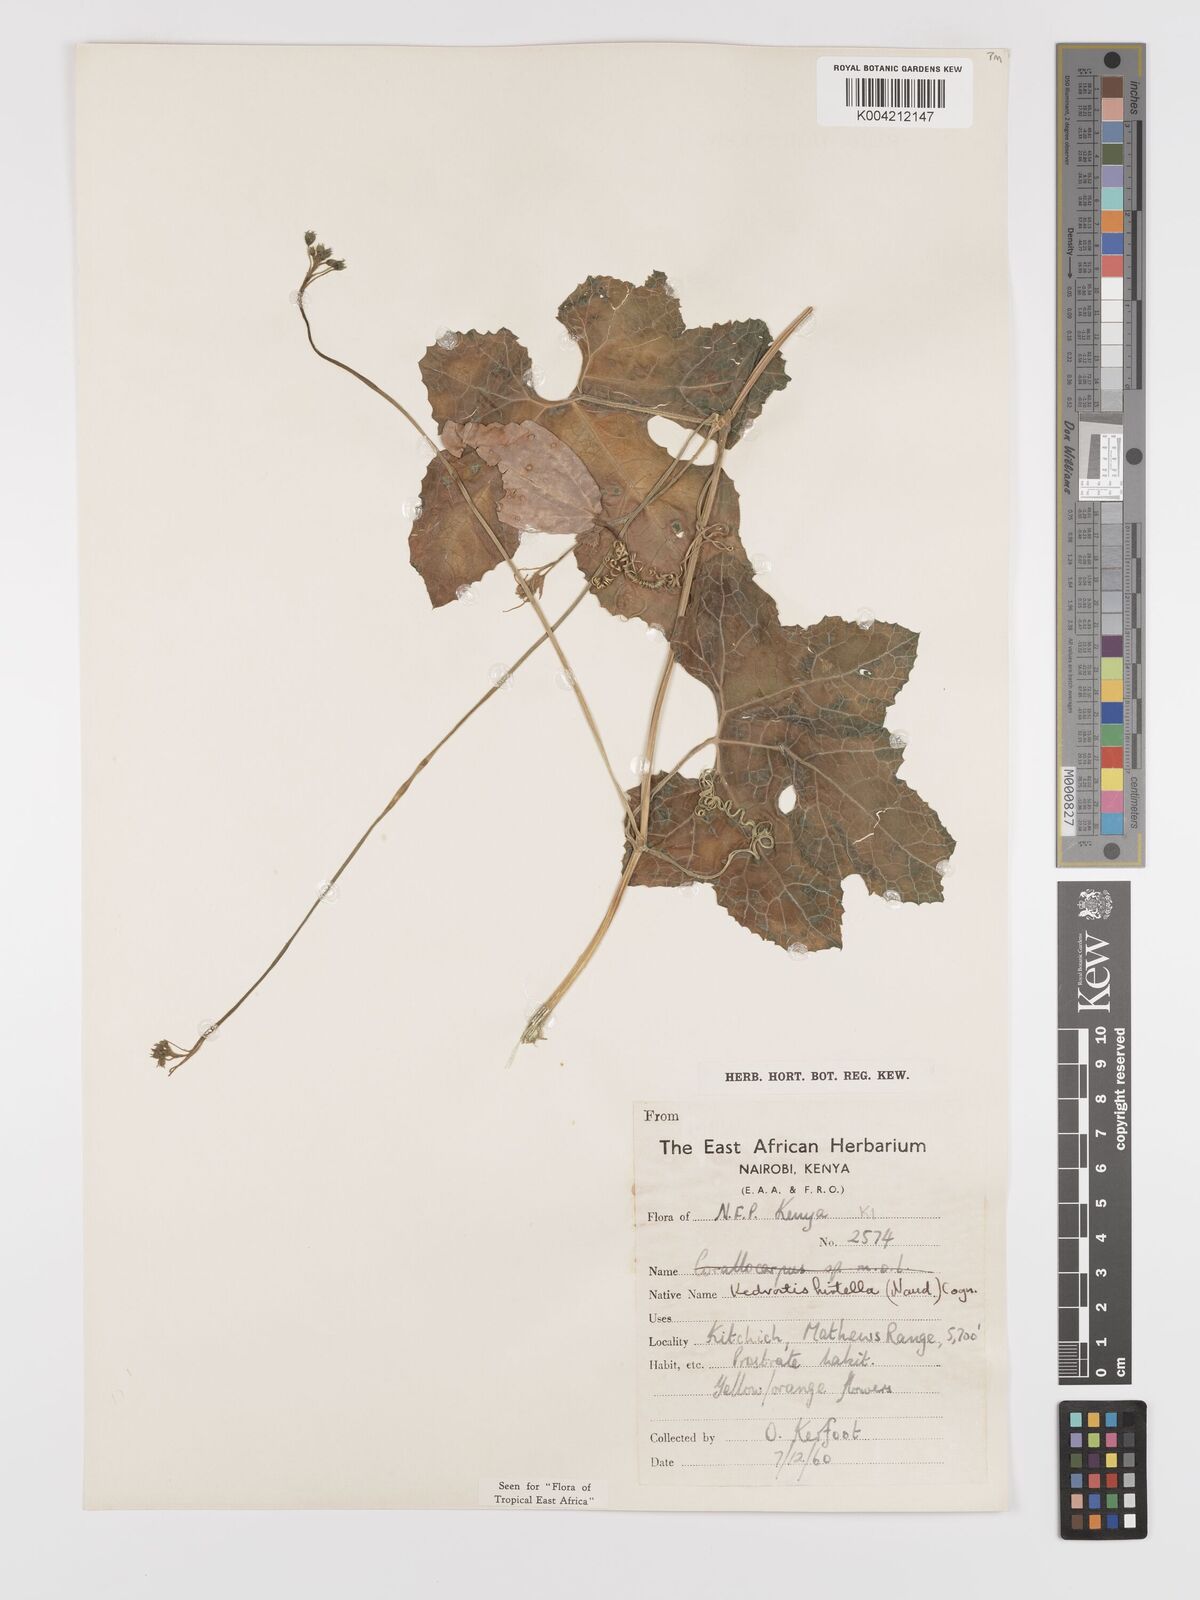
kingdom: Plantae
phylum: Tracheophyta
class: Magnoliopsida
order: Cucurbitales
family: Cucurbitaceae
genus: Kedrostis
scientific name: Kedrostis leloja
